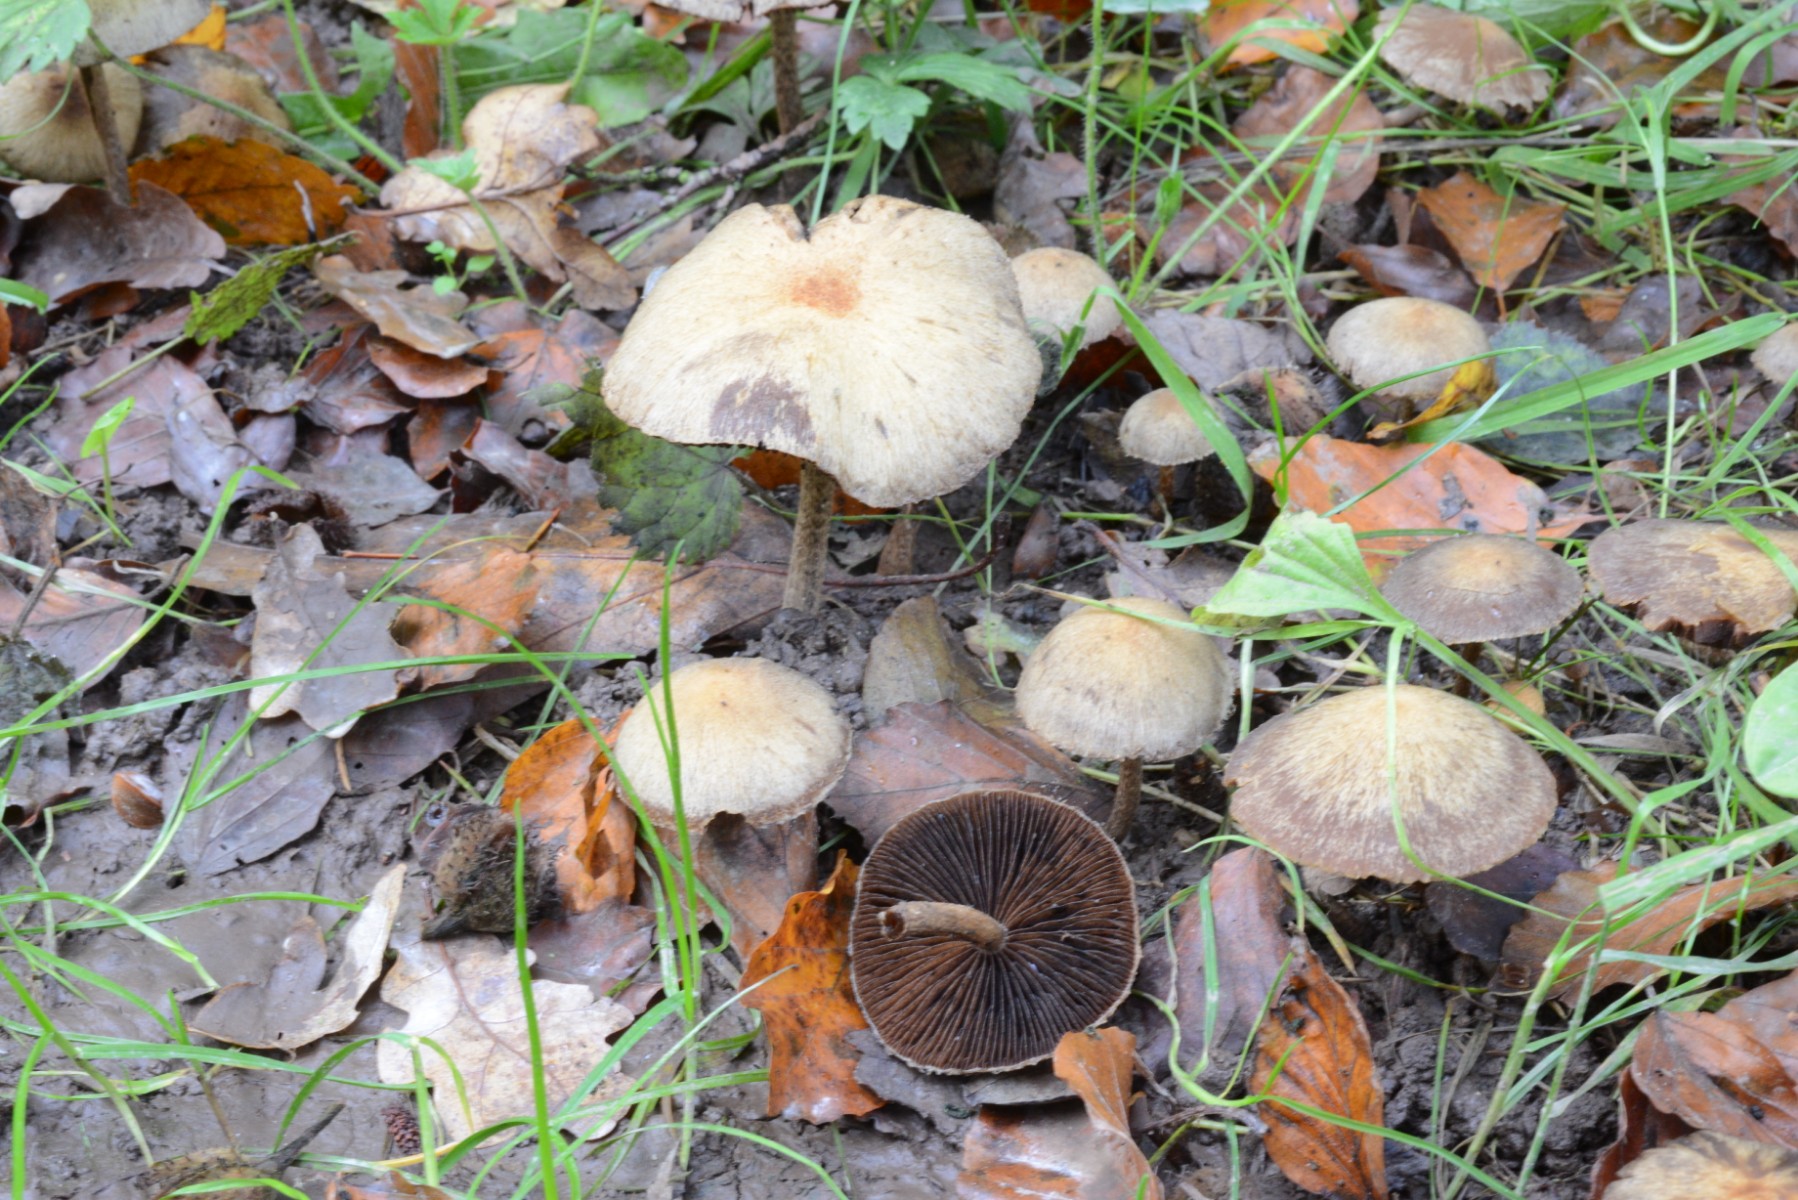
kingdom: Fungi
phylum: Basidiomycota
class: Agaricomycetes
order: Agaricales
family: Psathyrellaceae
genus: Lacrymaria
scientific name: Lacrymaria lacrymabunda
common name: grædende mørkhat
